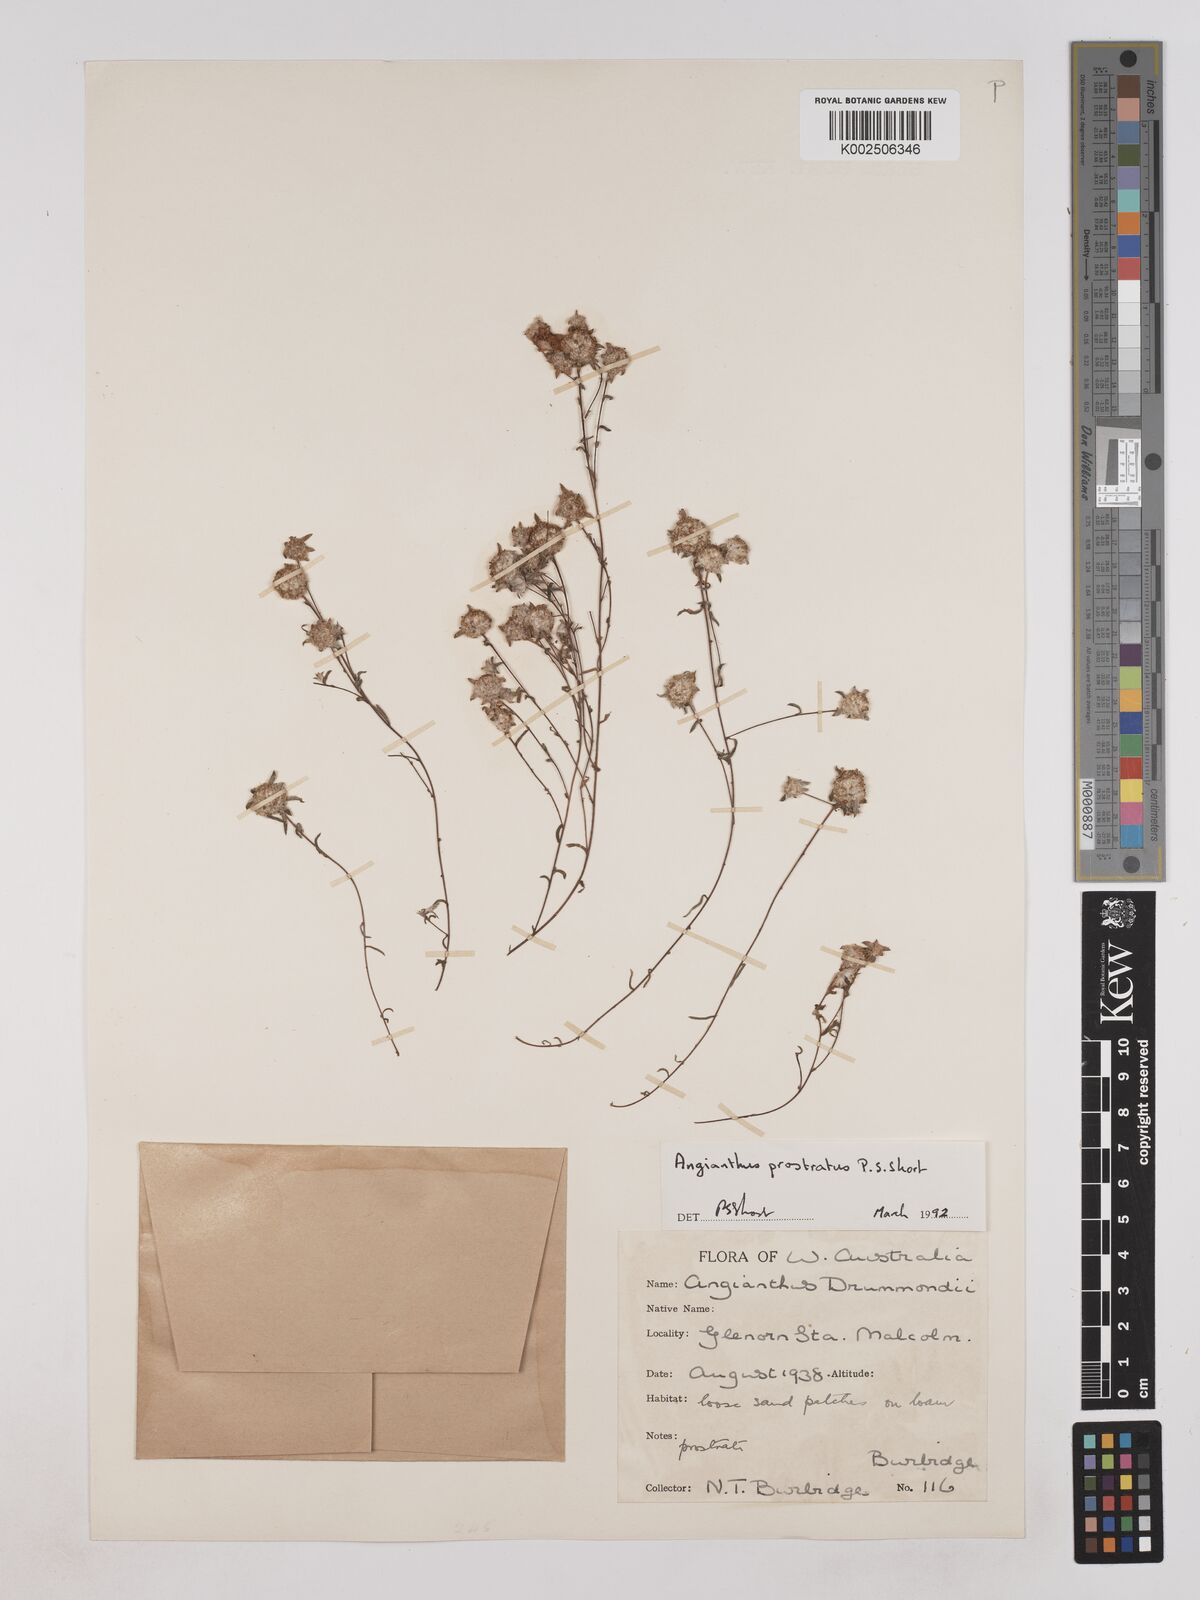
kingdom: Plantae
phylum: Tracheophyta
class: Magnoliopsida
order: Asterales
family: Asteraceae
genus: Angianthus
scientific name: Angianthus prostratus
